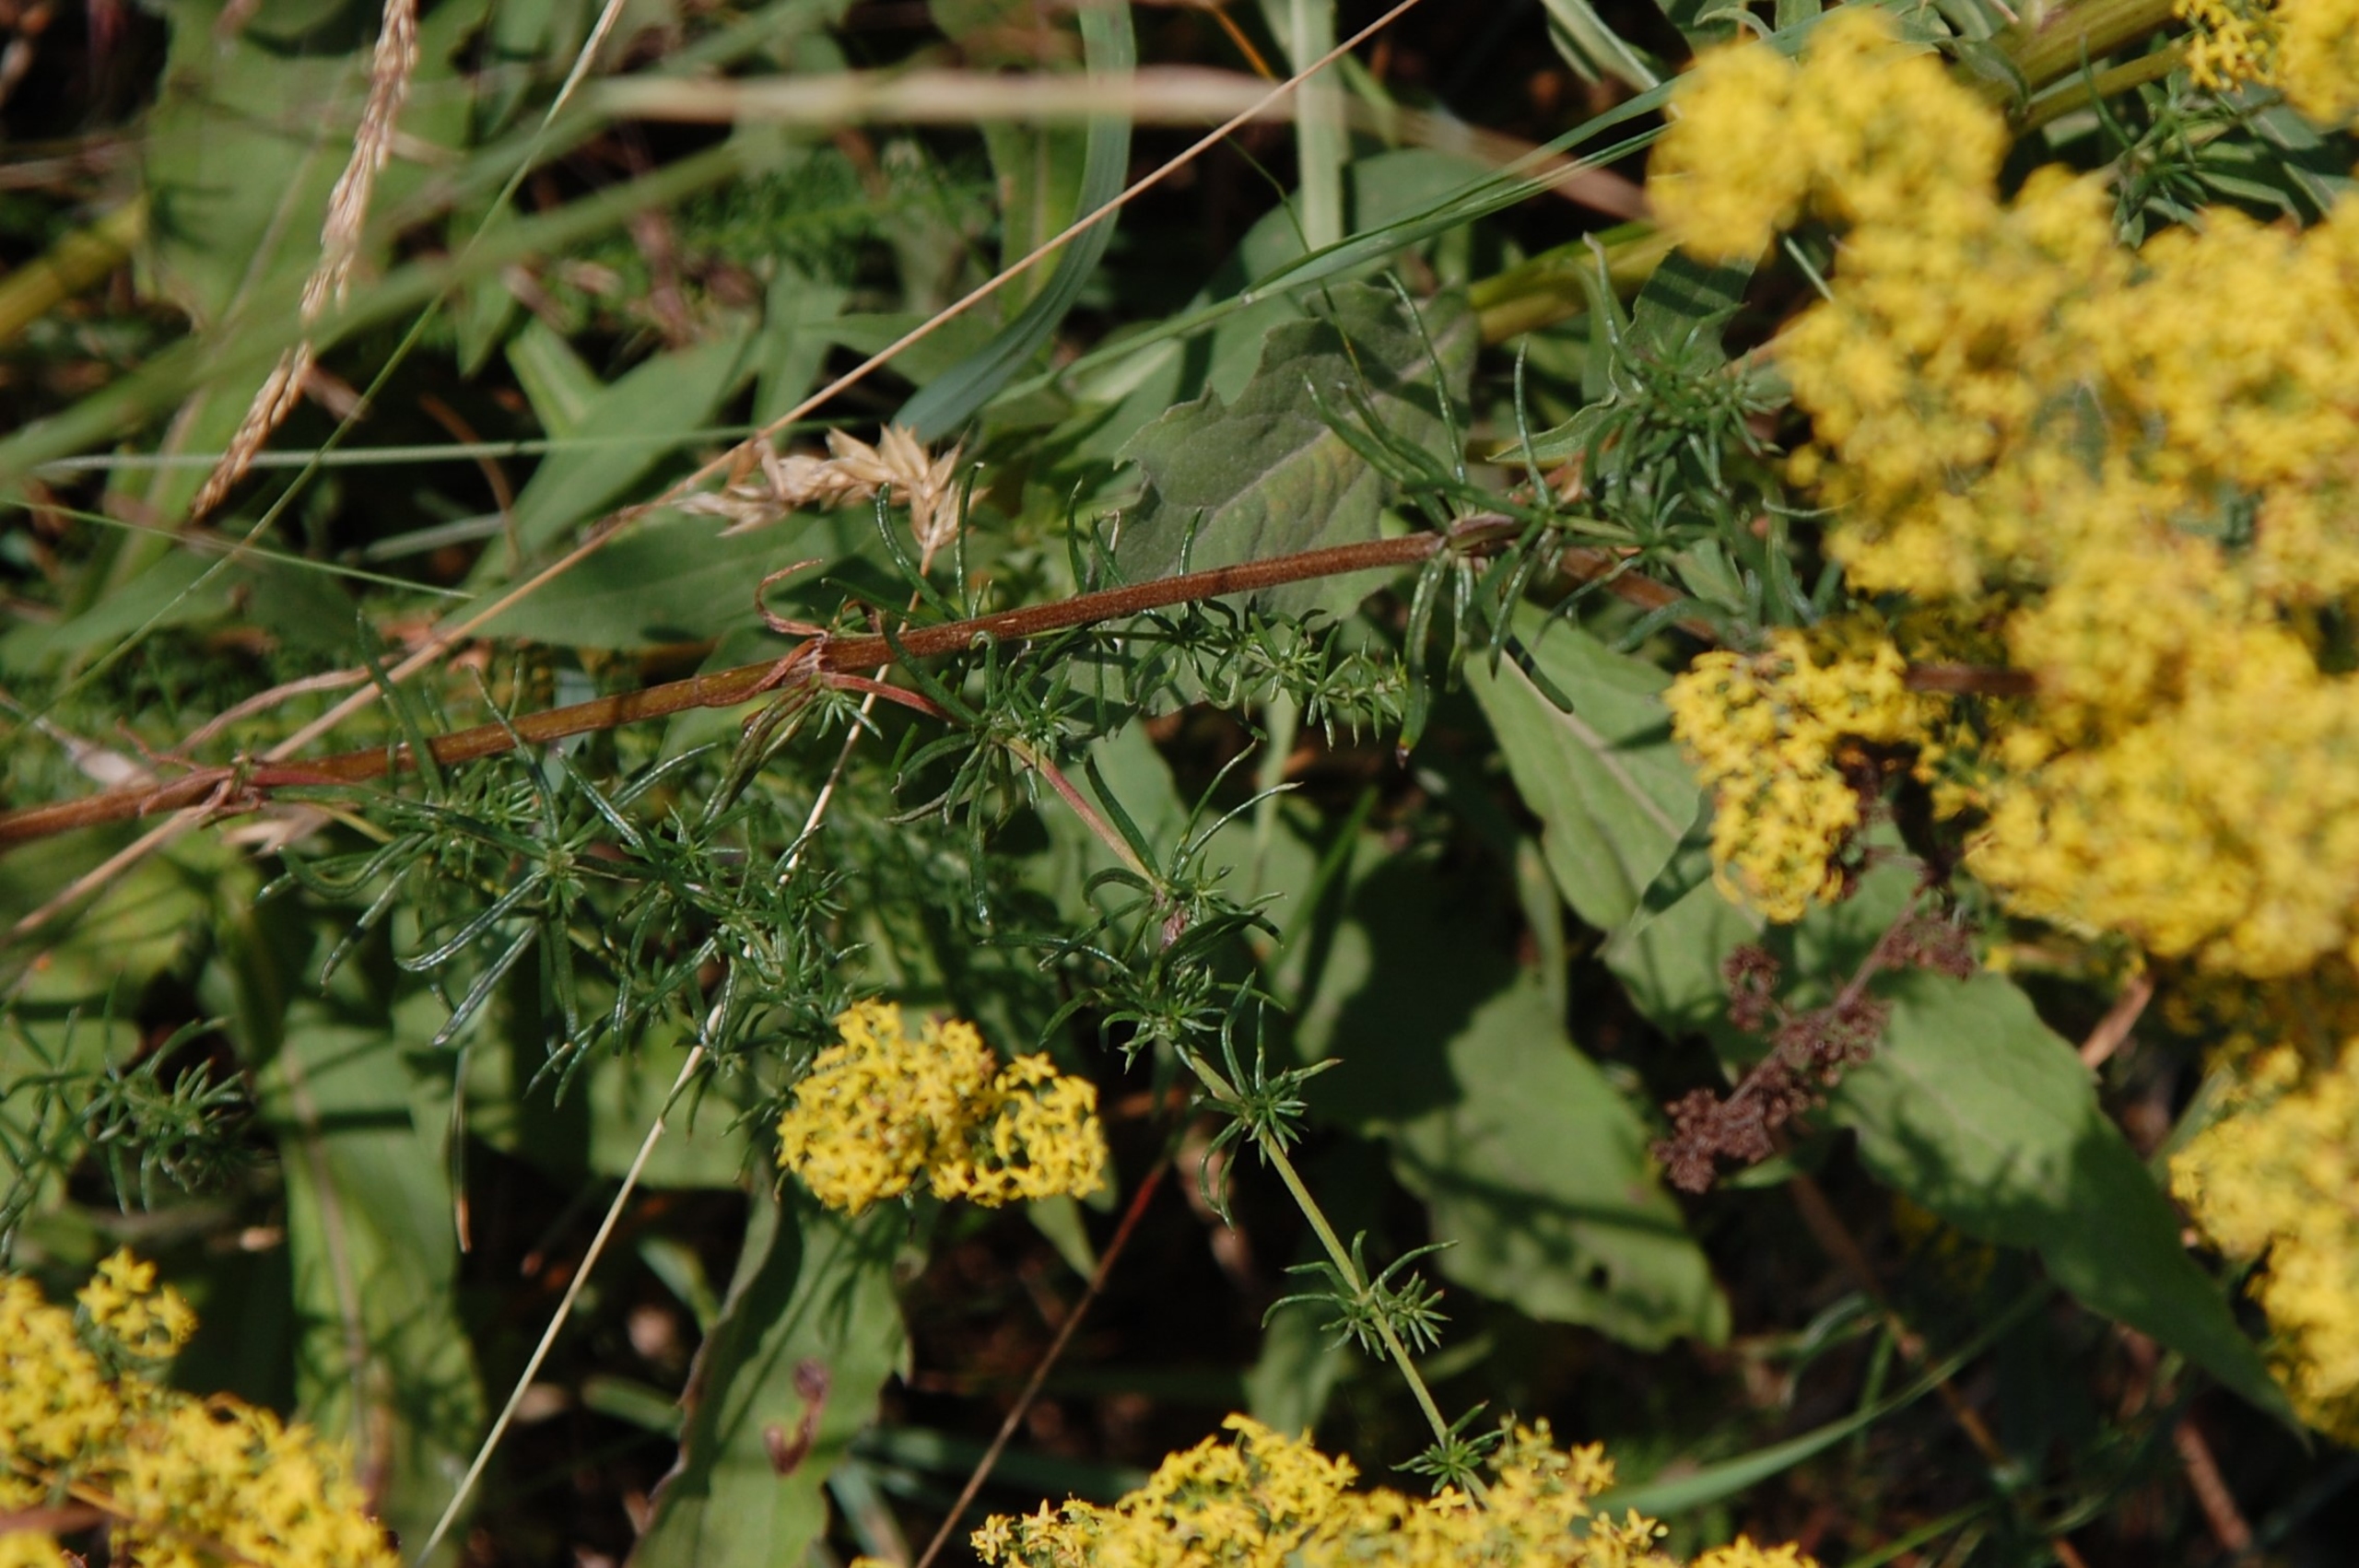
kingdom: Plantae
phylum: Tracheophyta
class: Magnoliopsida
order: Gentianales
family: Rubiaceae
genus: Galium
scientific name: Galium verum
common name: Gul snerre
